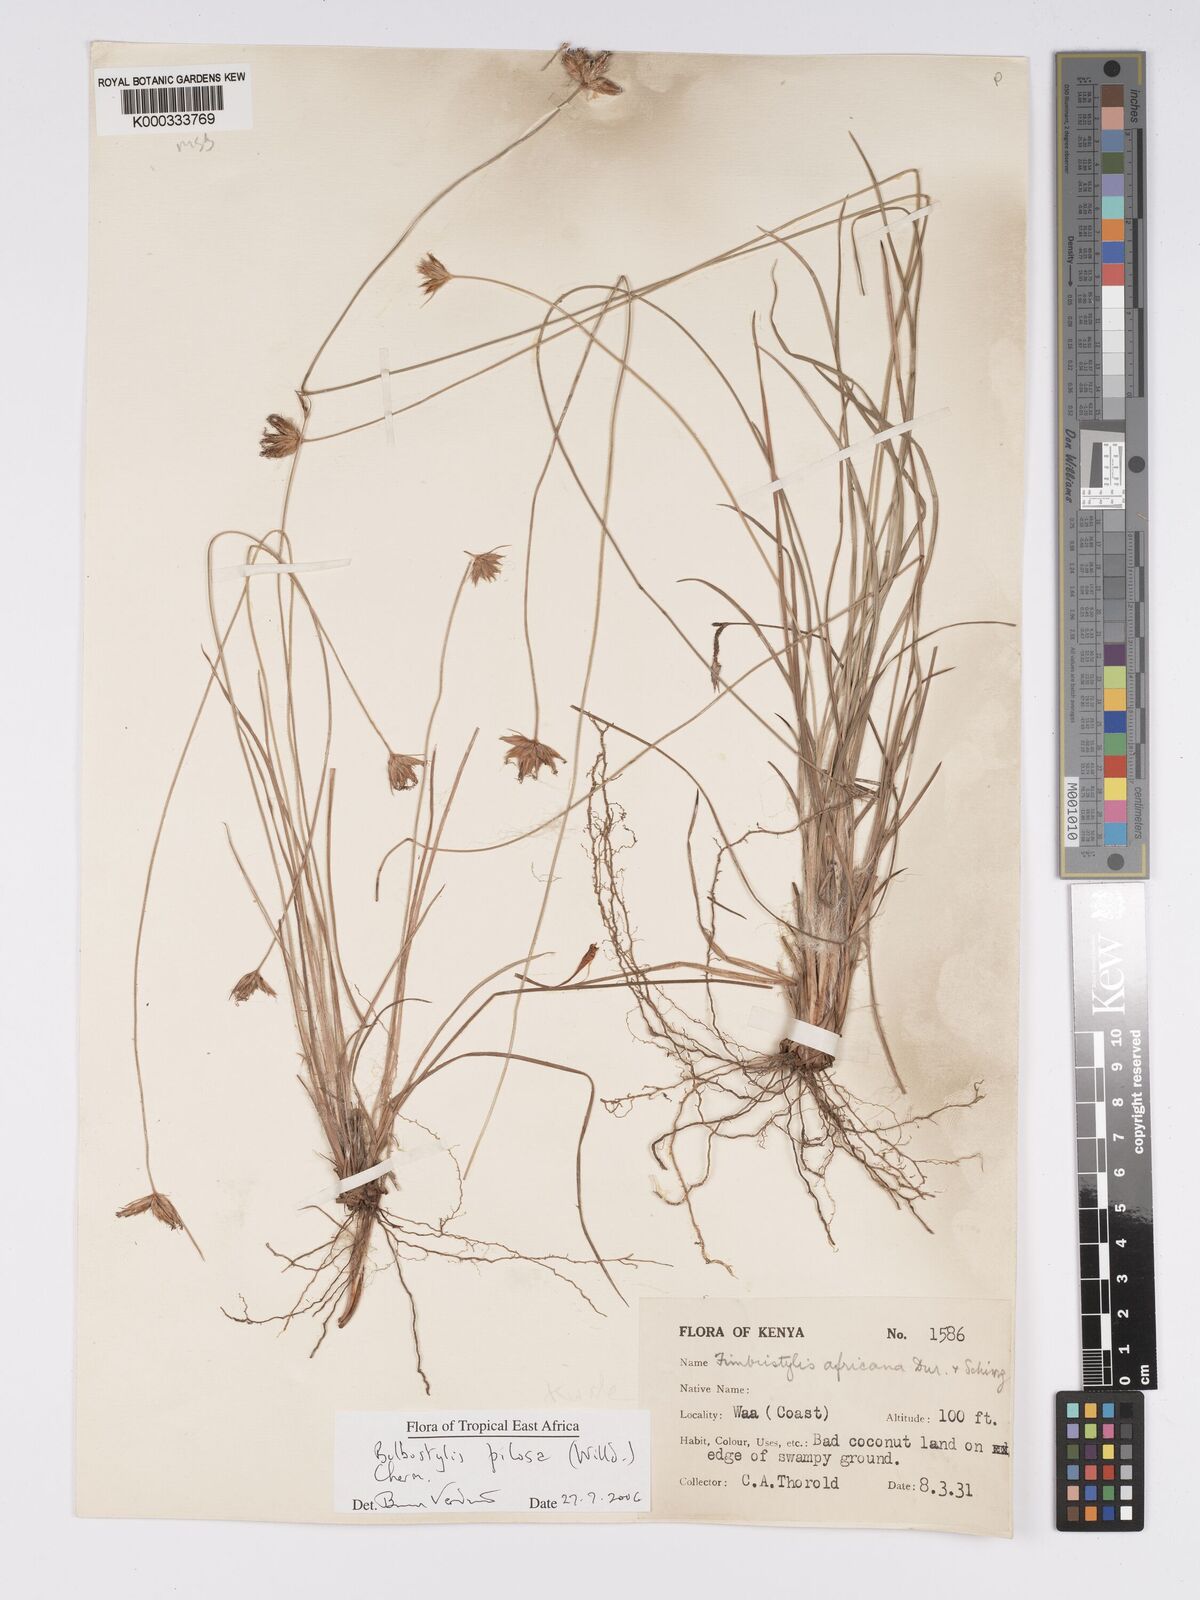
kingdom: Plantae
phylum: Tracheophyta
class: Liliopsida
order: Poales
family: Cyperaceae
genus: Bulbostylis
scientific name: Bulbostylis pilosa
